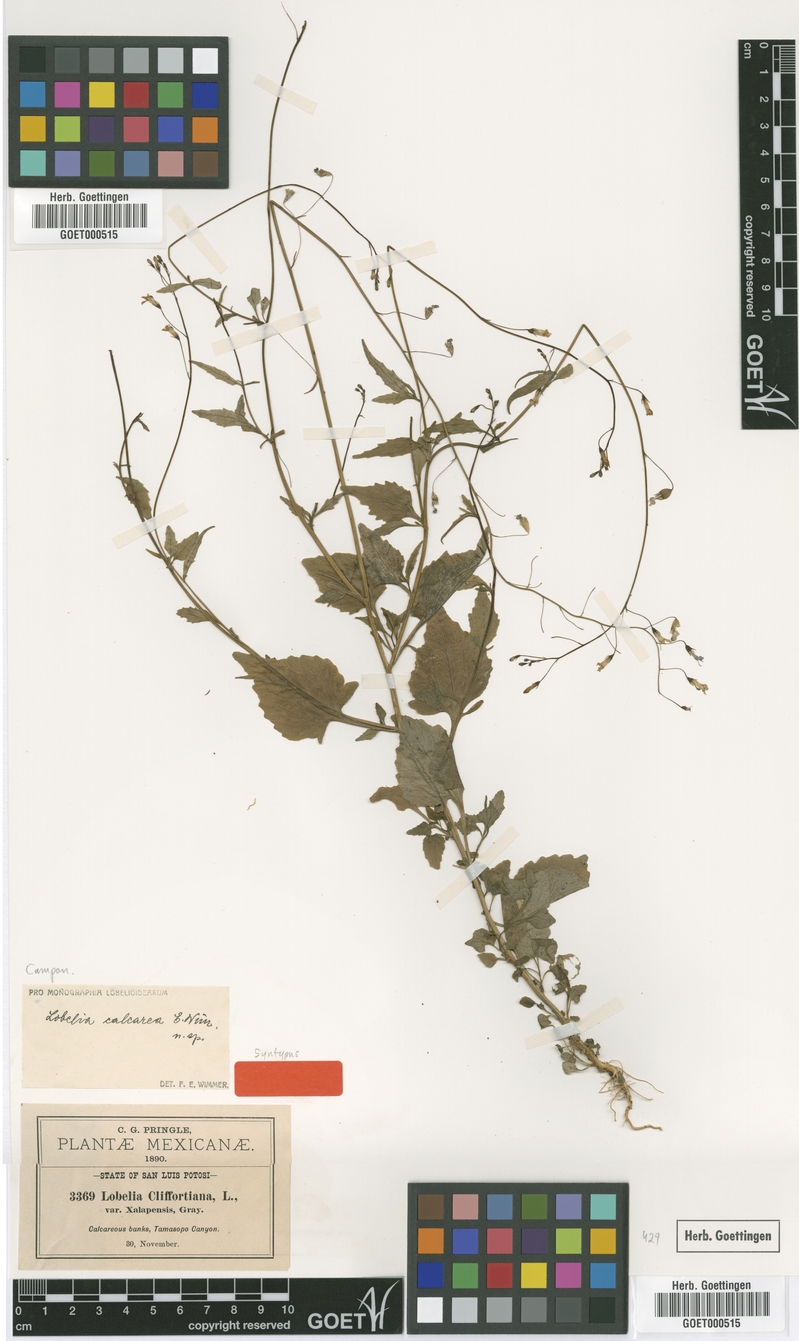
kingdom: Plantae
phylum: Tracheophyta
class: Magnoliopsida
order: Asterales
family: Campanulaceae
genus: Lobelia
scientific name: Lobelia berlandieri
